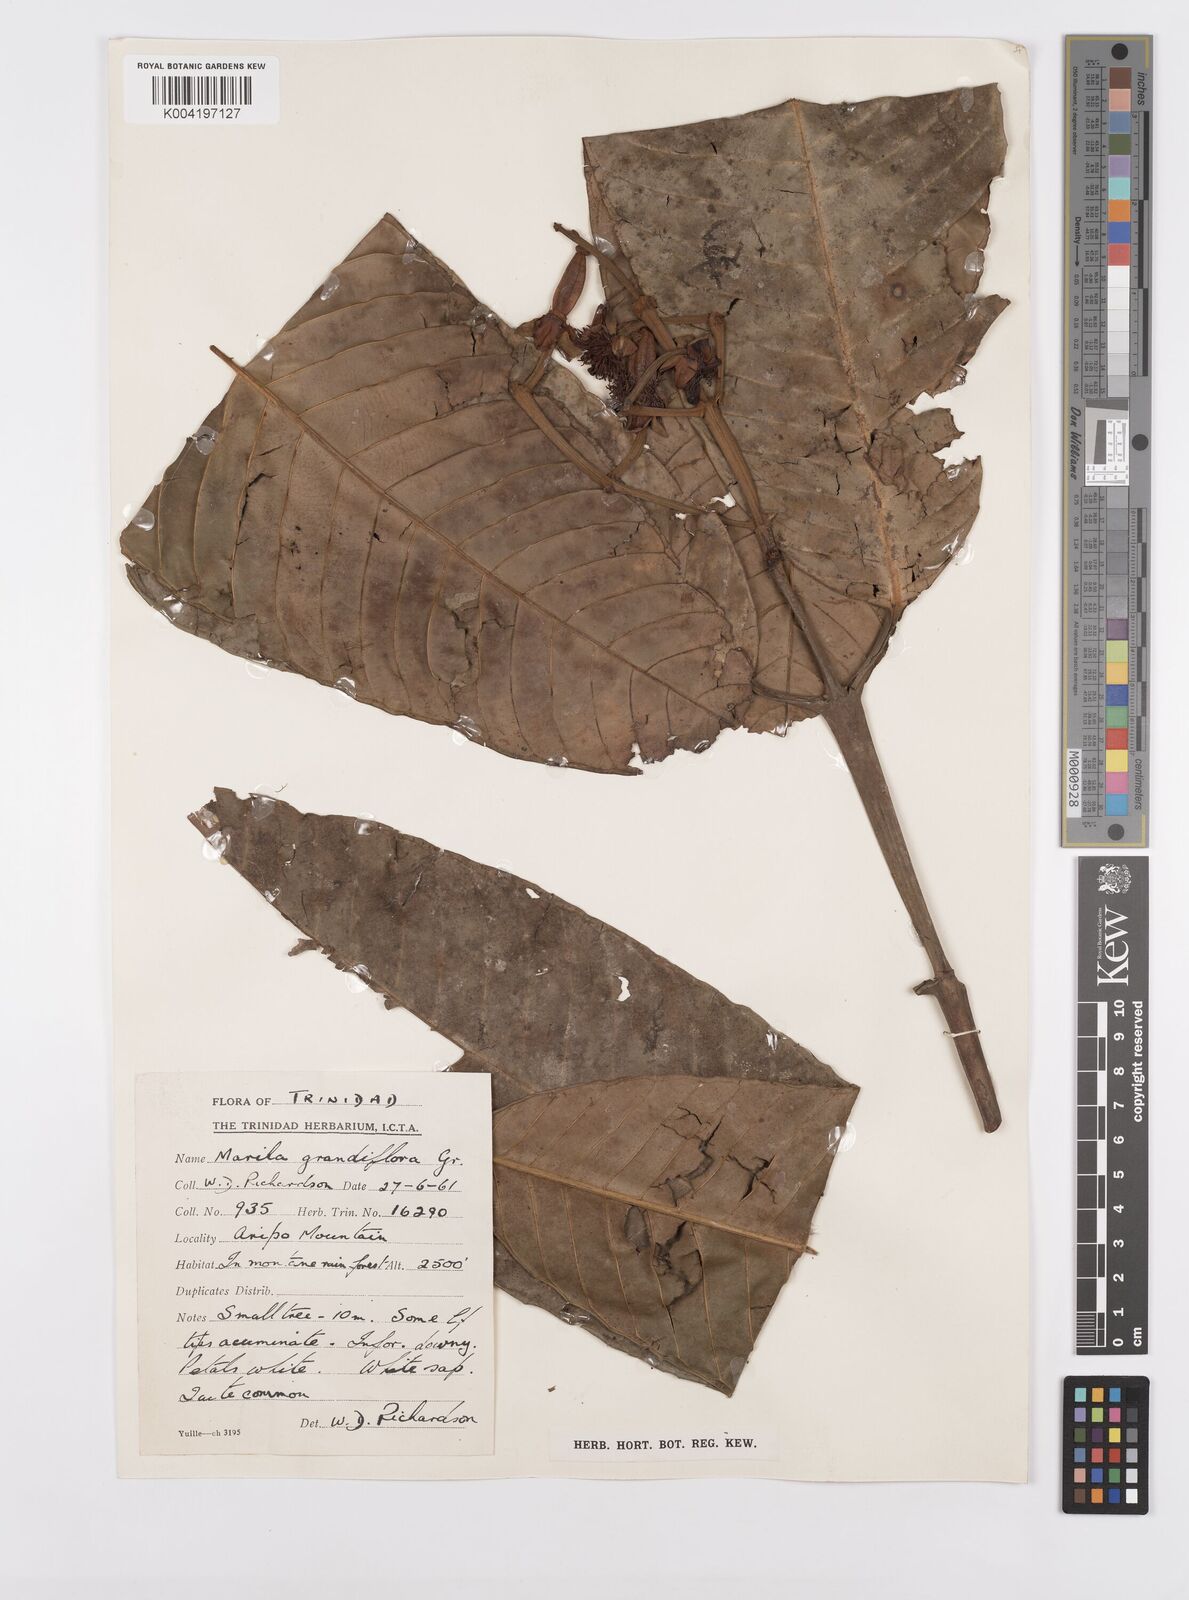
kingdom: Plantae
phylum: Tracheophyta
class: Magnoliopsida
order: Malpighiales
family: Calophyllaceae
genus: Marila
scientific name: Marila grandiflora
